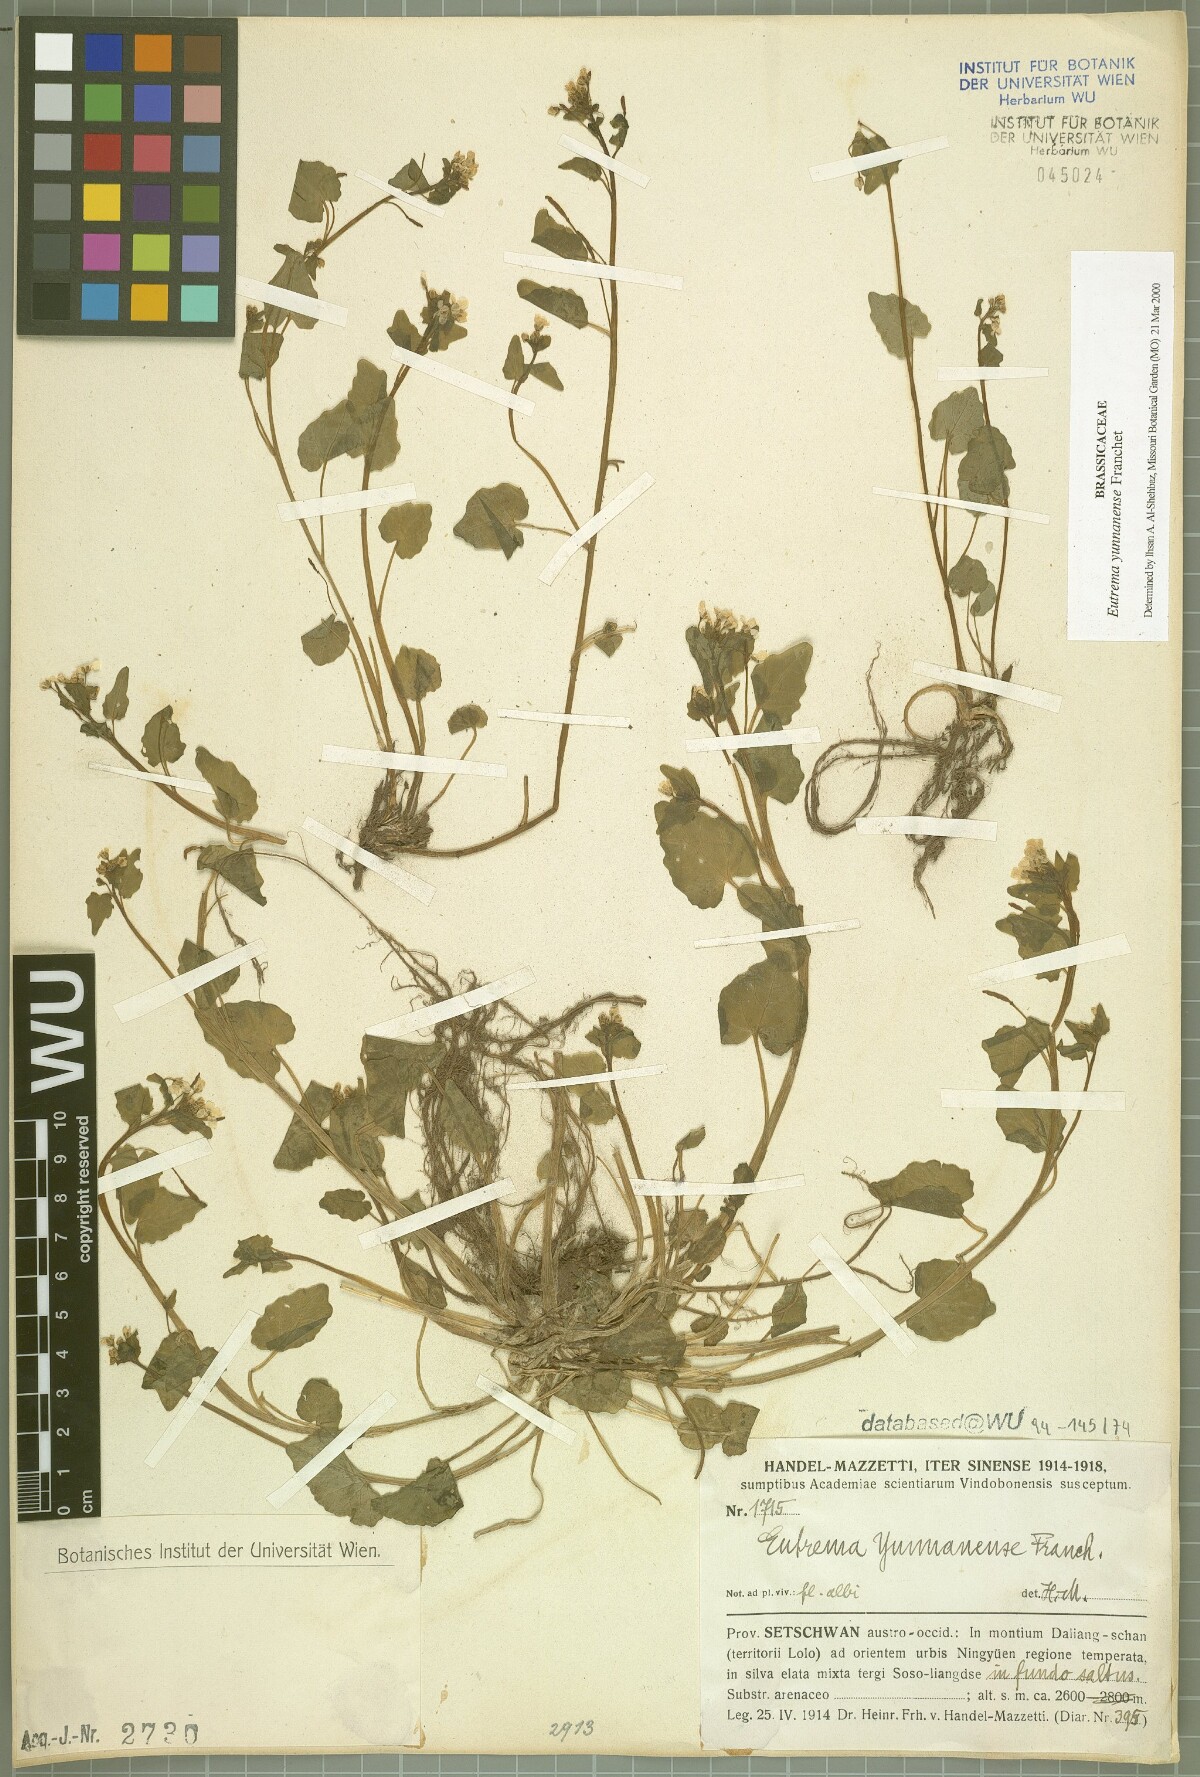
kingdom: Plantae
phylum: Tracheophyta
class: Magnoliopsida
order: Brassicales
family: Brassicaceae
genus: Eutrema
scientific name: Eutrema yunnanense
